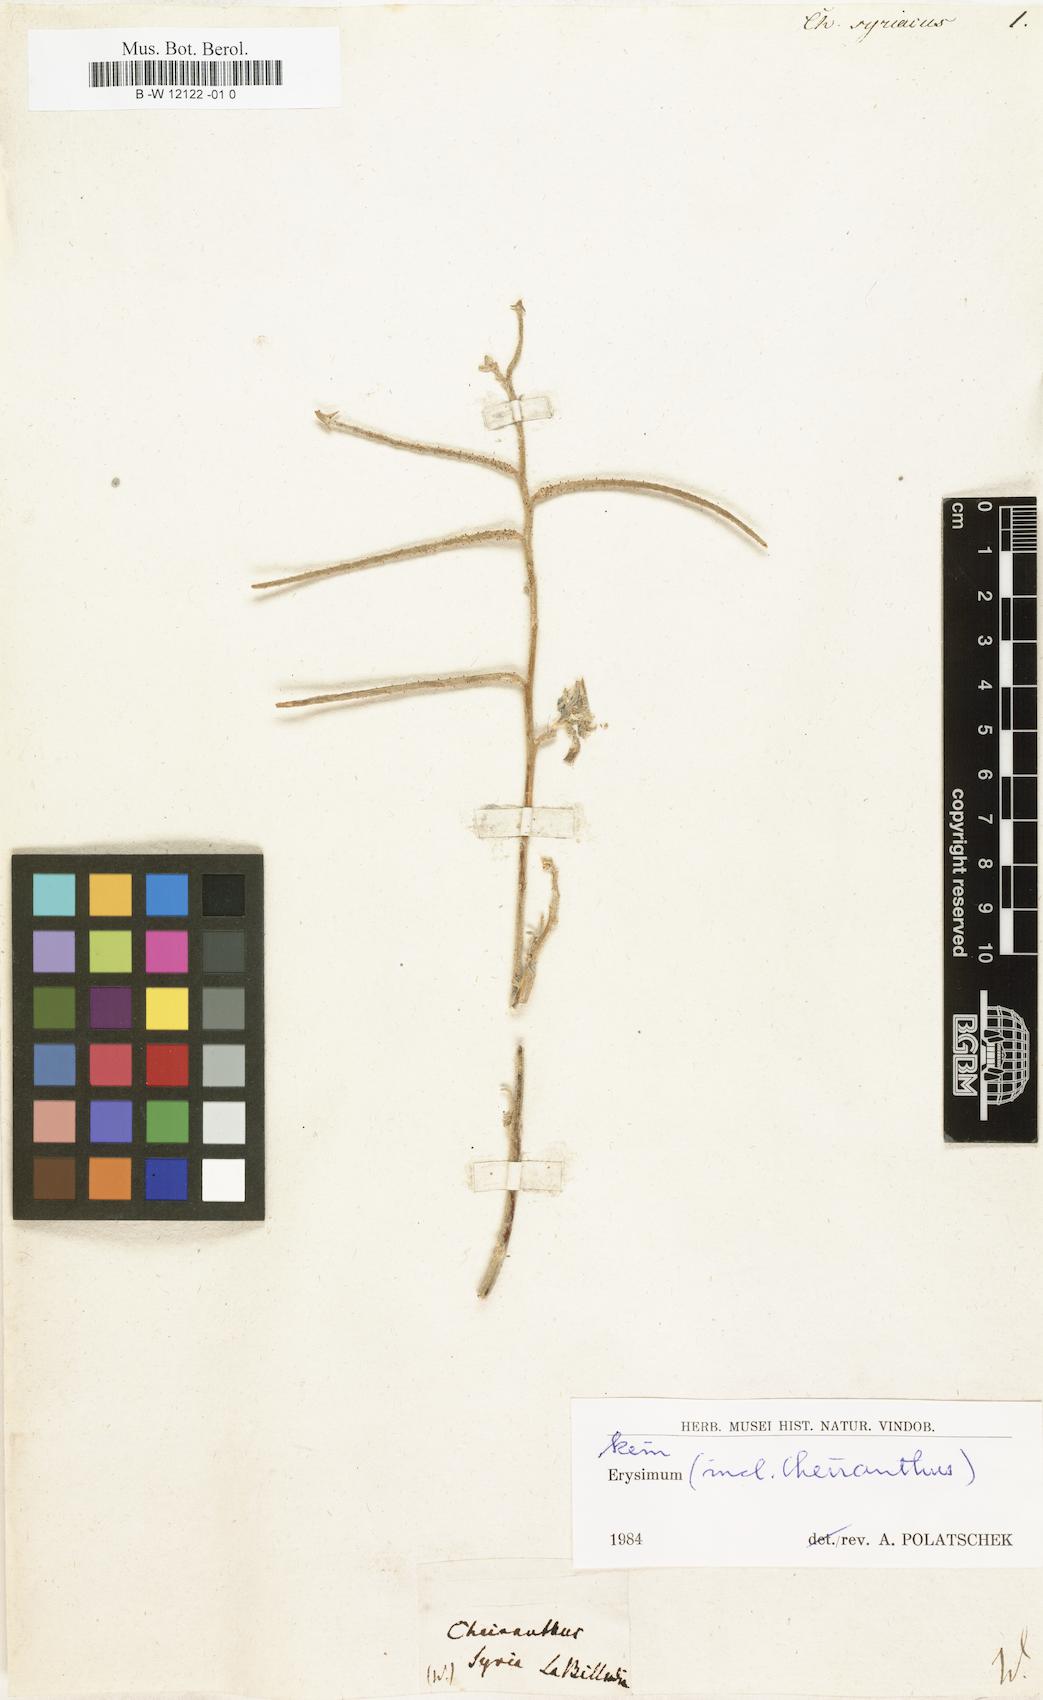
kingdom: Plantae
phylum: Tracheophyta
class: Magnoliopsida
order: Brassicales
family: Brassicaceae
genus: Hesperis
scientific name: Hesperis syriaca
